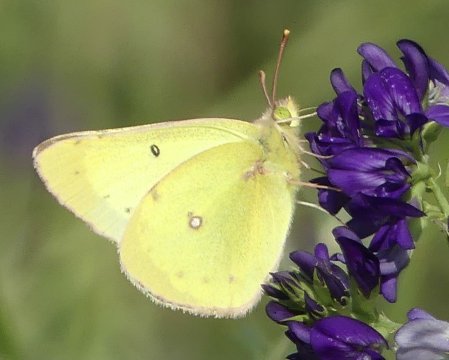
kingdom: Animalia
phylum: Arthropoda
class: Insecta
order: Lepidoptera
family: Pieridae
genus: Colias
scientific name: Colias philodice
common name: Clouded Sulphur
